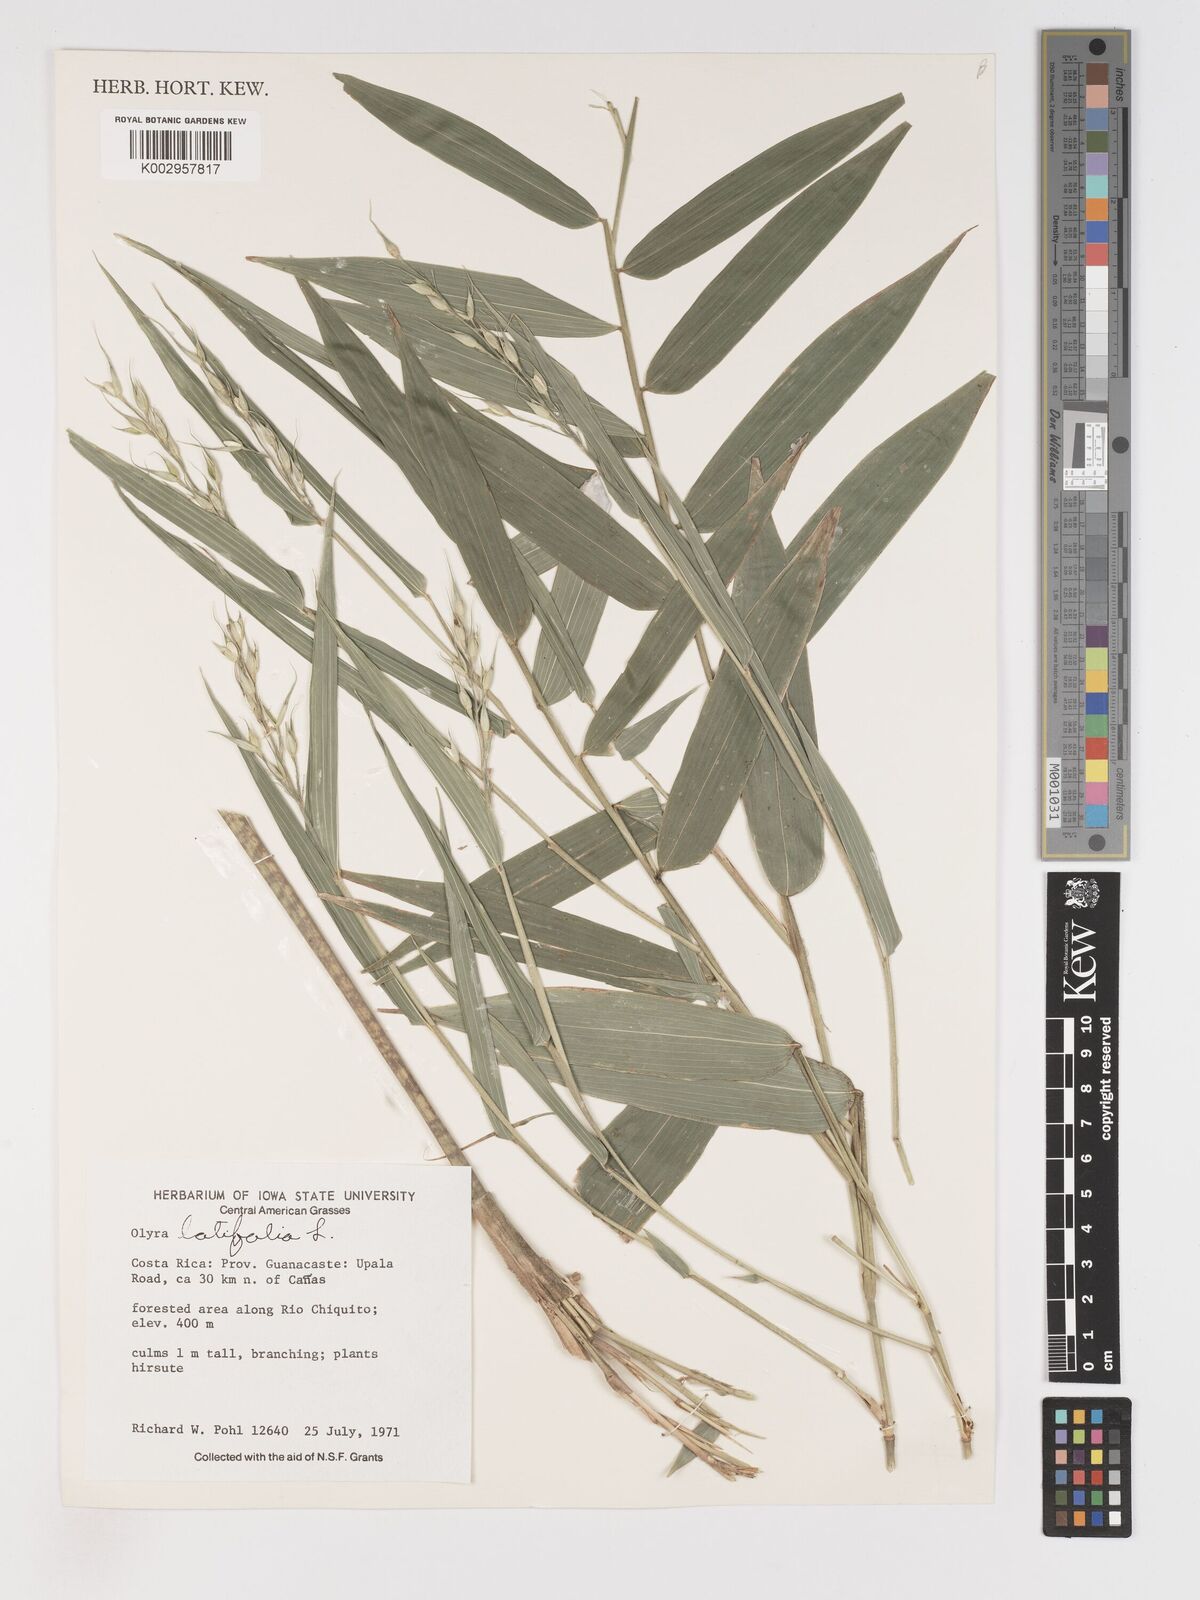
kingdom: Plantae
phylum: Tracheophyta
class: Liliopsida
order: Poales
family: Poaceae
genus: Olyra
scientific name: Olyra latifolia
